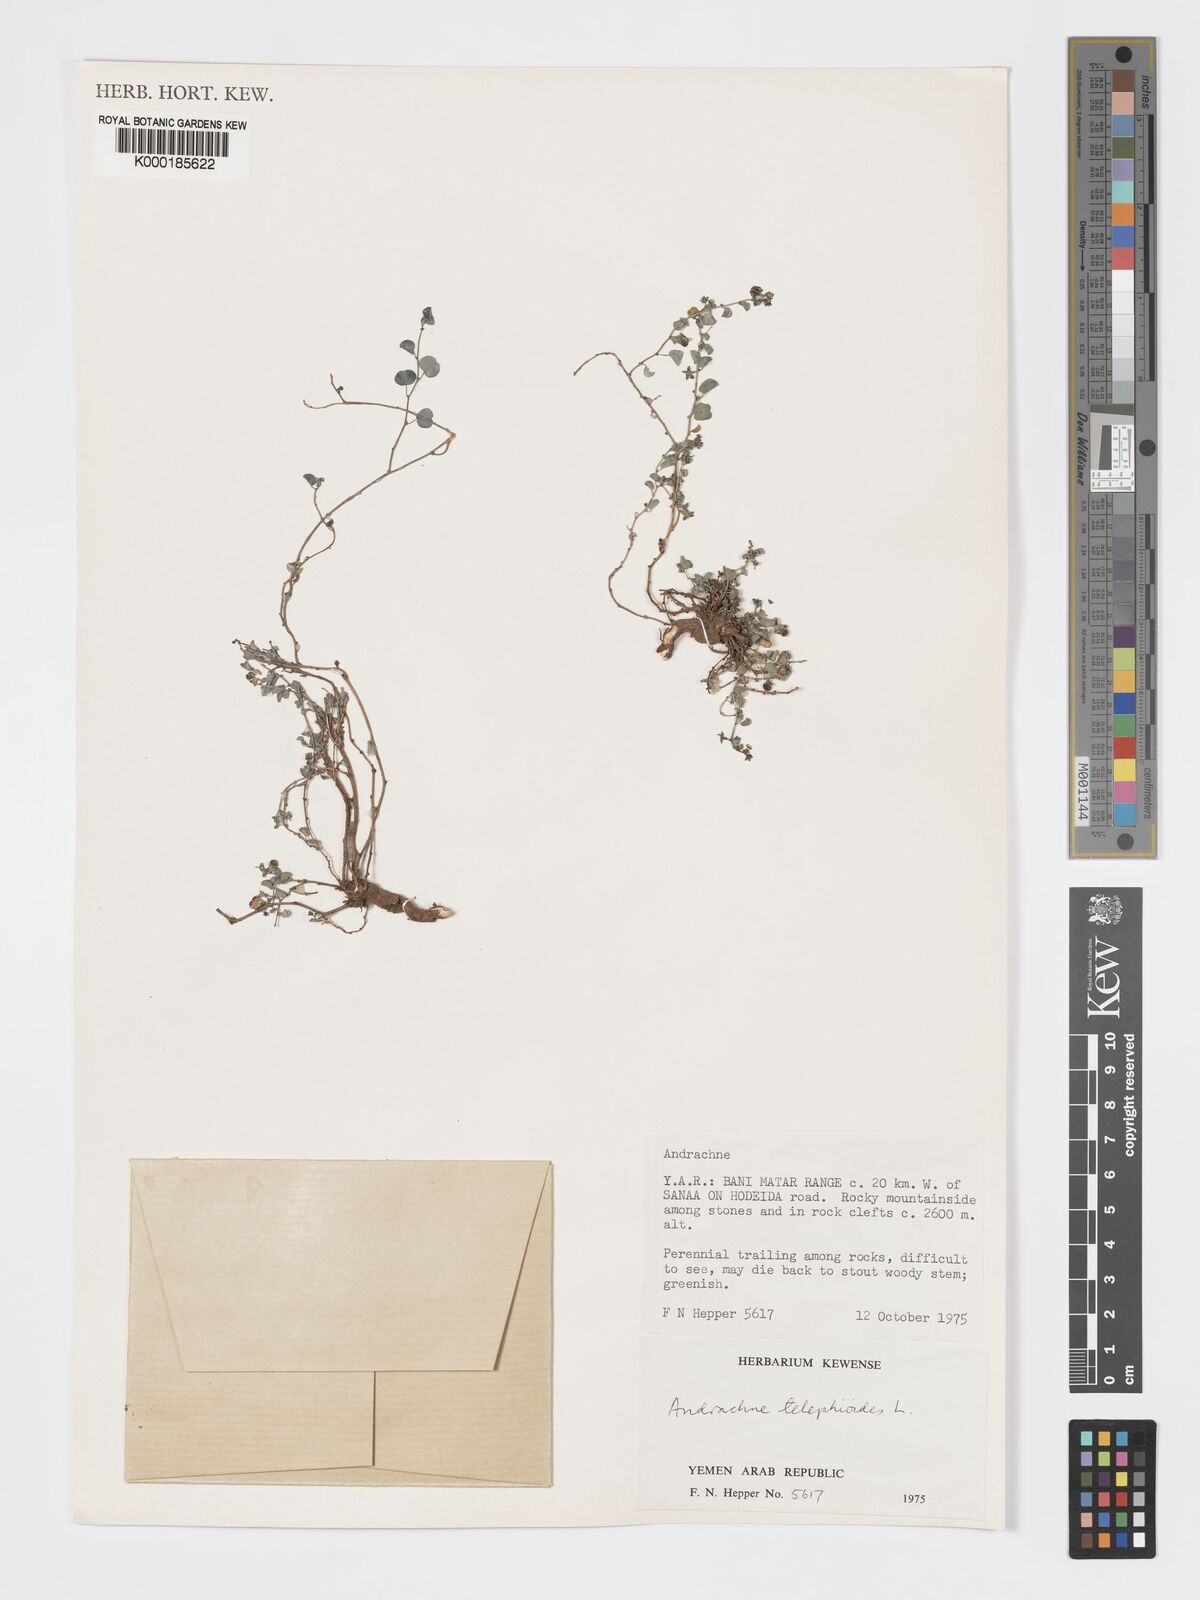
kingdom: Plantae
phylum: Tracheophyta
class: Magnoliopsida
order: Malpighiales
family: Phyllanthaceae
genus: Andrachne
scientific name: Andrachne telephioides
